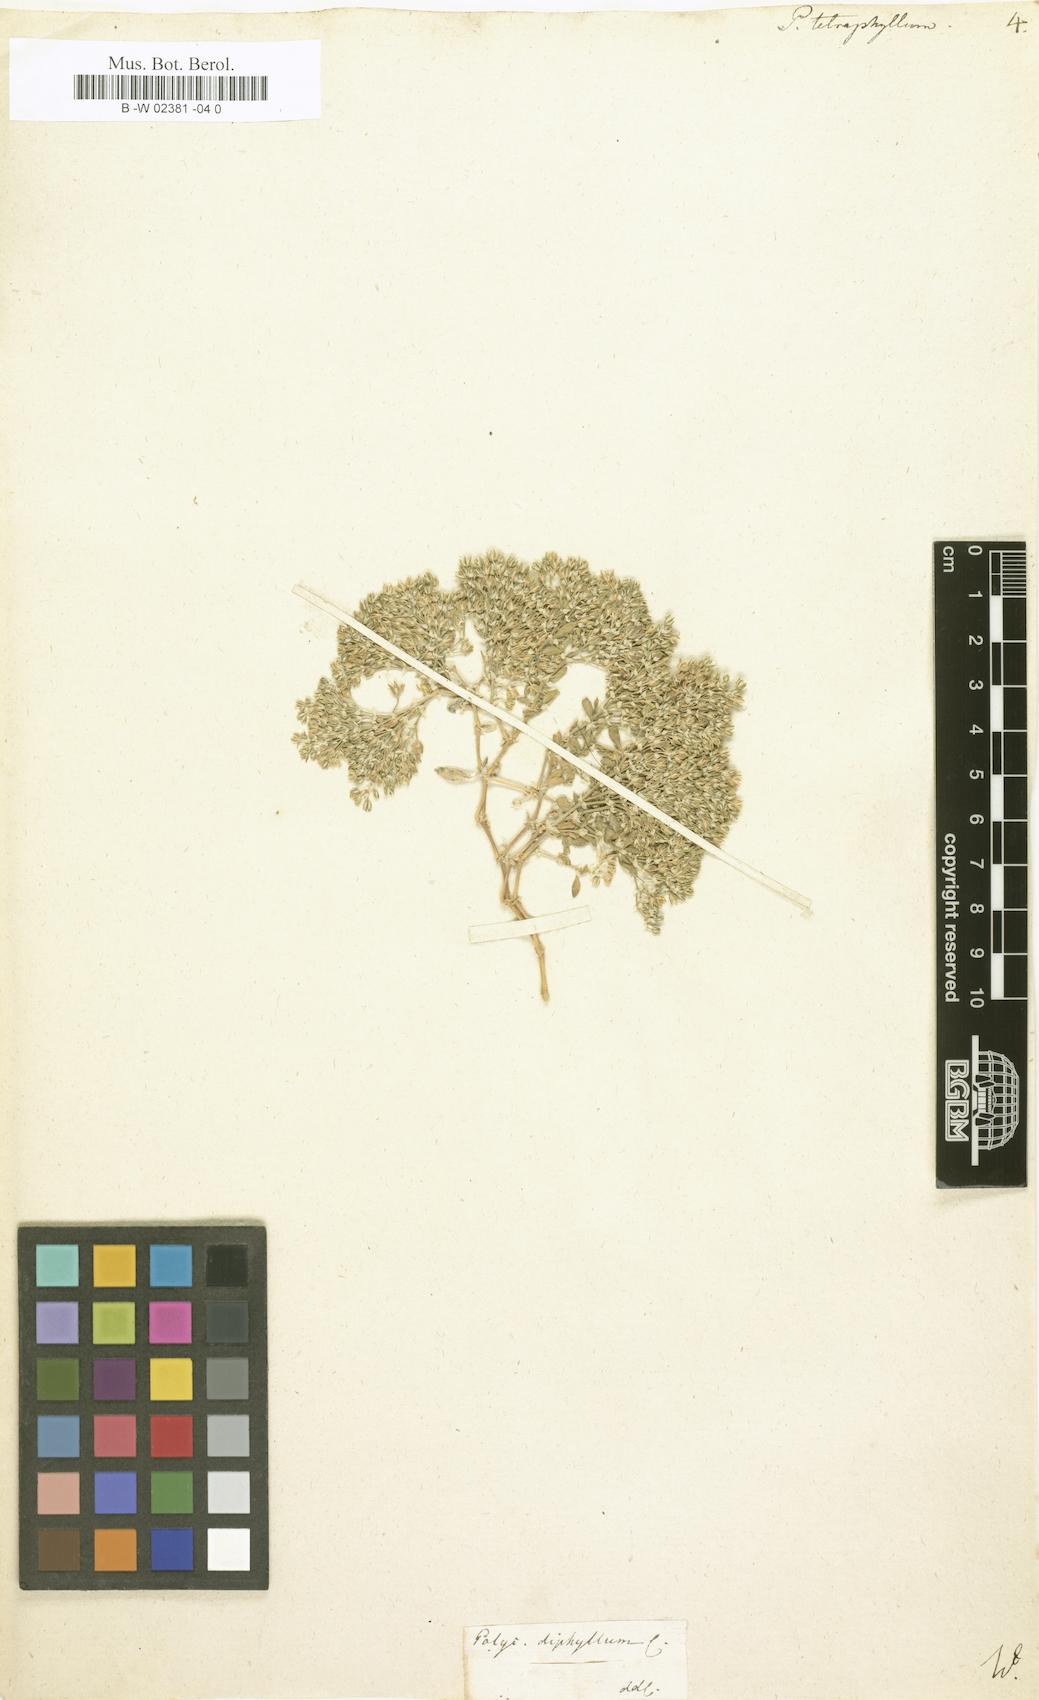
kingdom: Plantae
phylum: Tracheophyta
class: Magnoliopsida
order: Caryophyllales
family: Caryophyllaceae
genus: Polycarpon
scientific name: Polycarpon tetraphyllum
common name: Four-leaved all-seed
